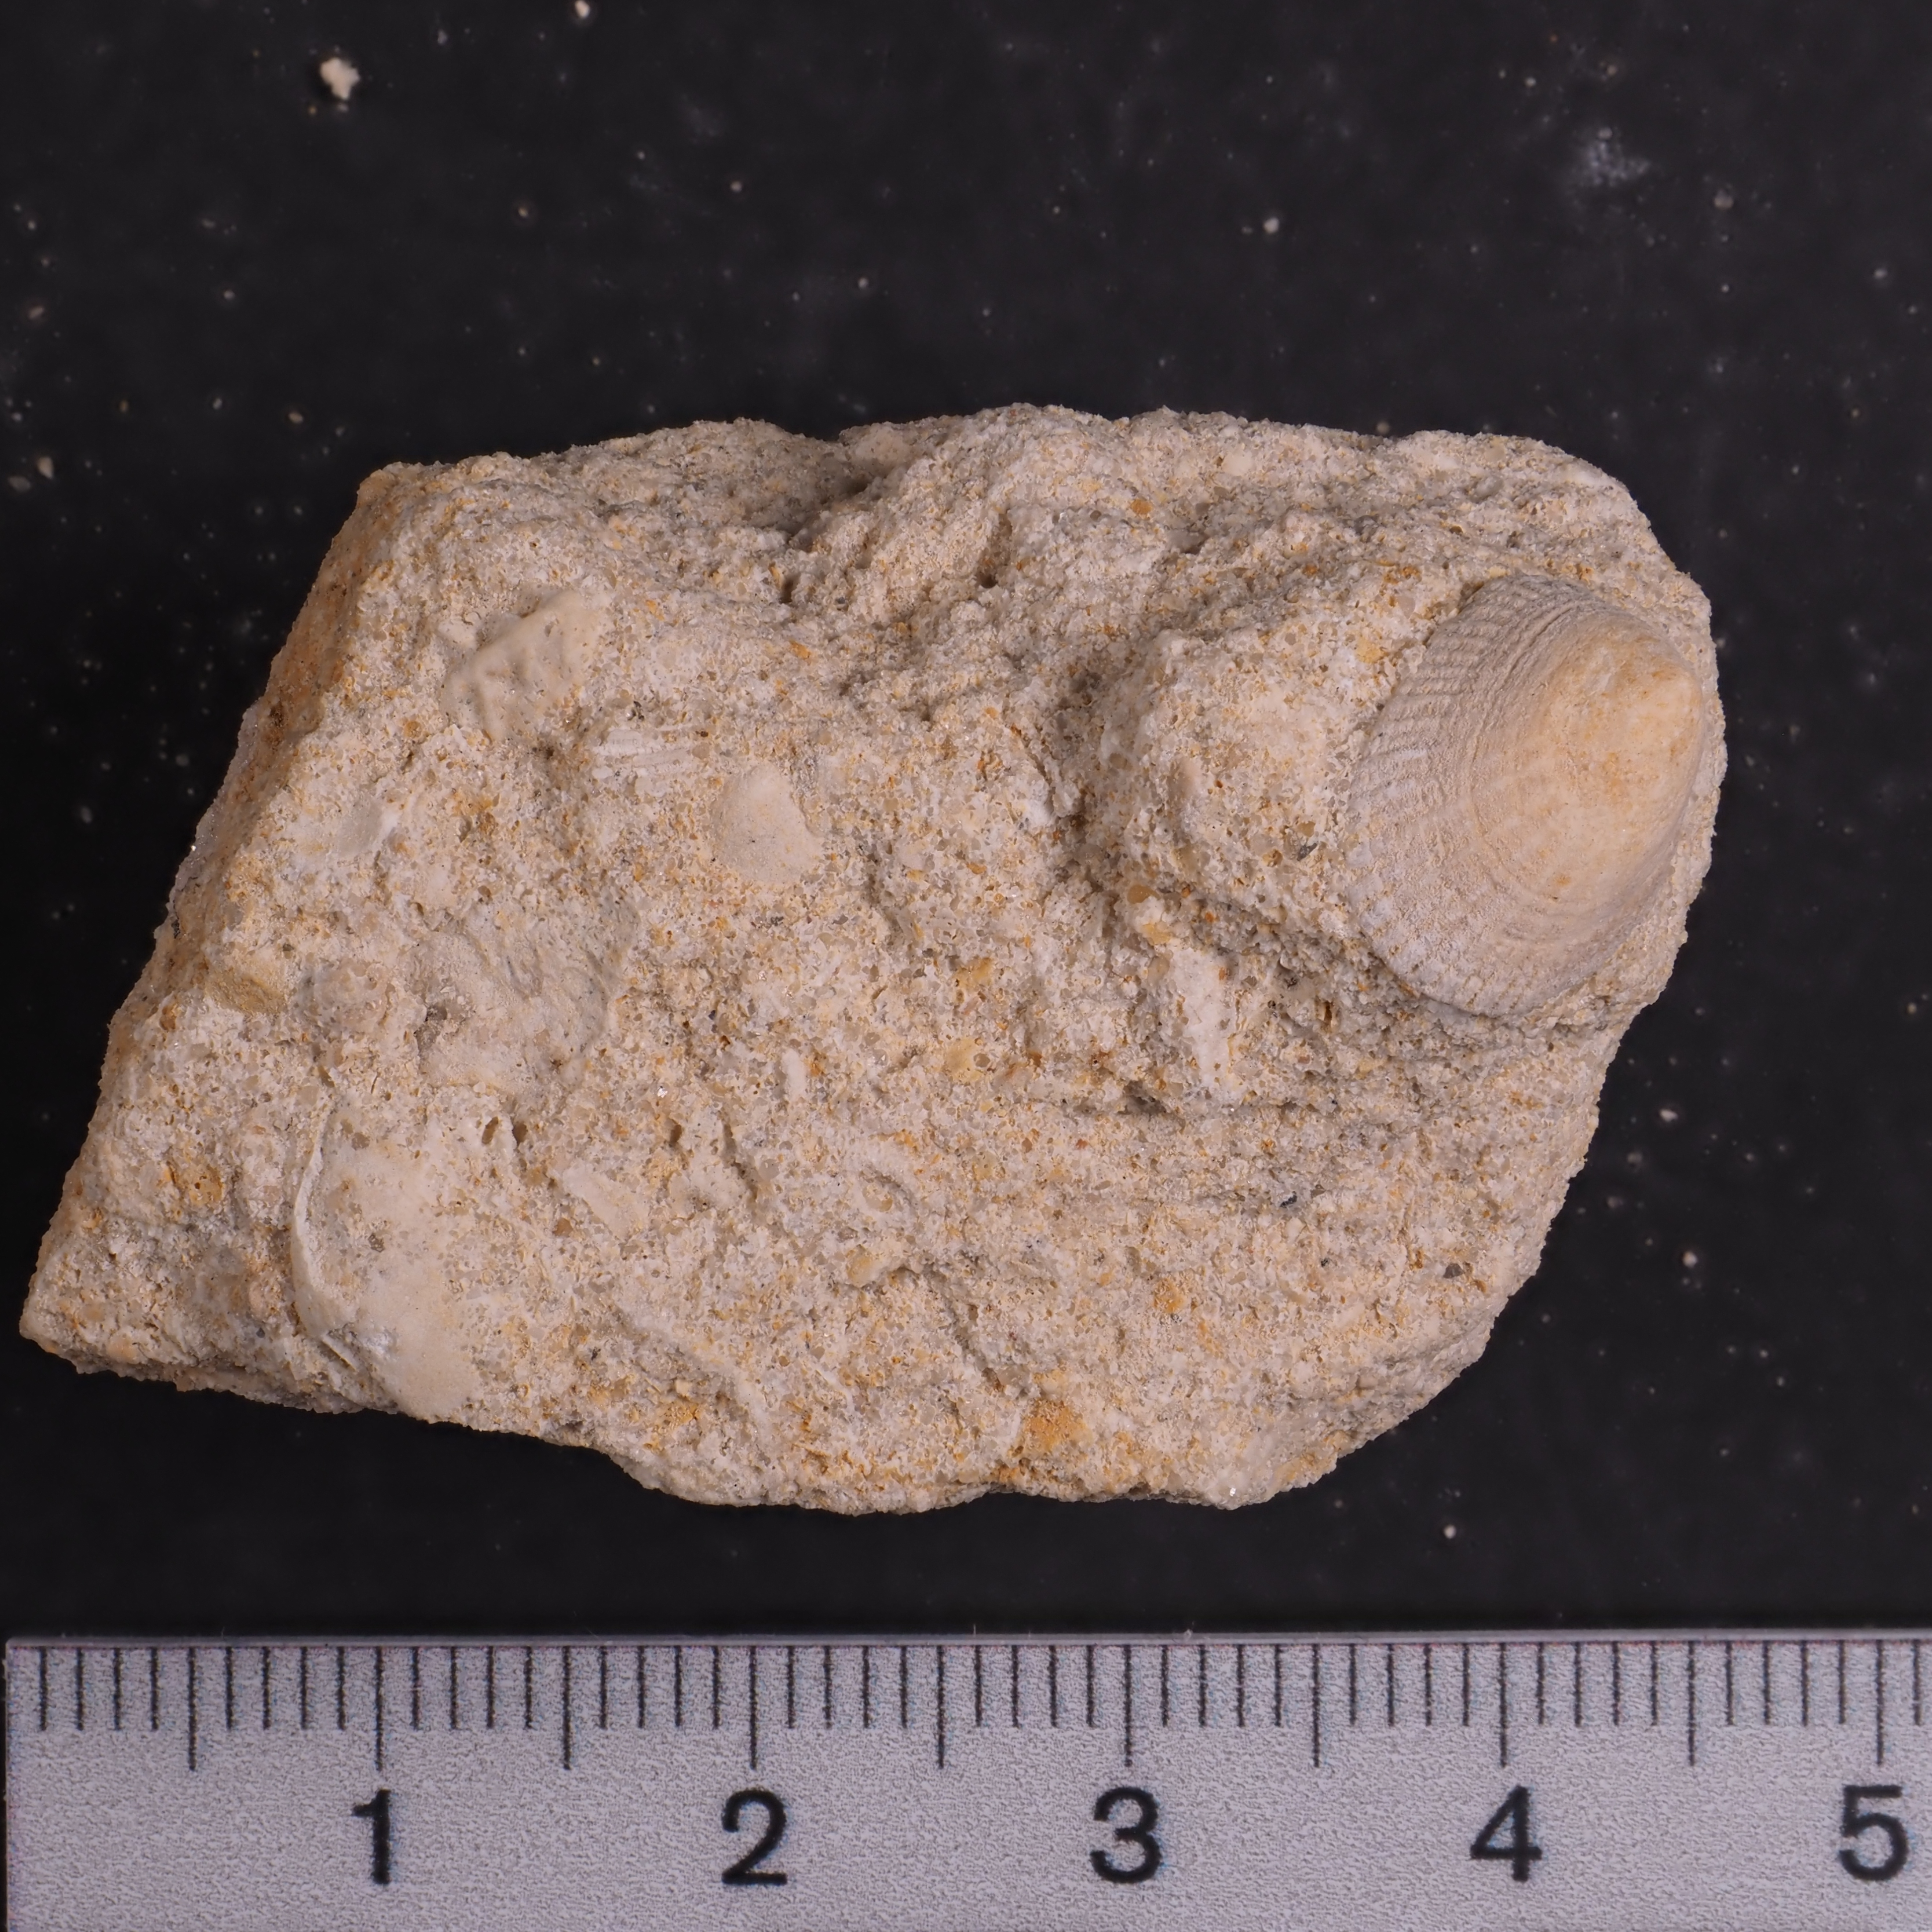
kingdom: Animalia
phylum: Mollusca
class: Gastropoda
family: Acmaeadae
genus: Scurriopsis
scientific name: Scurriopsis
